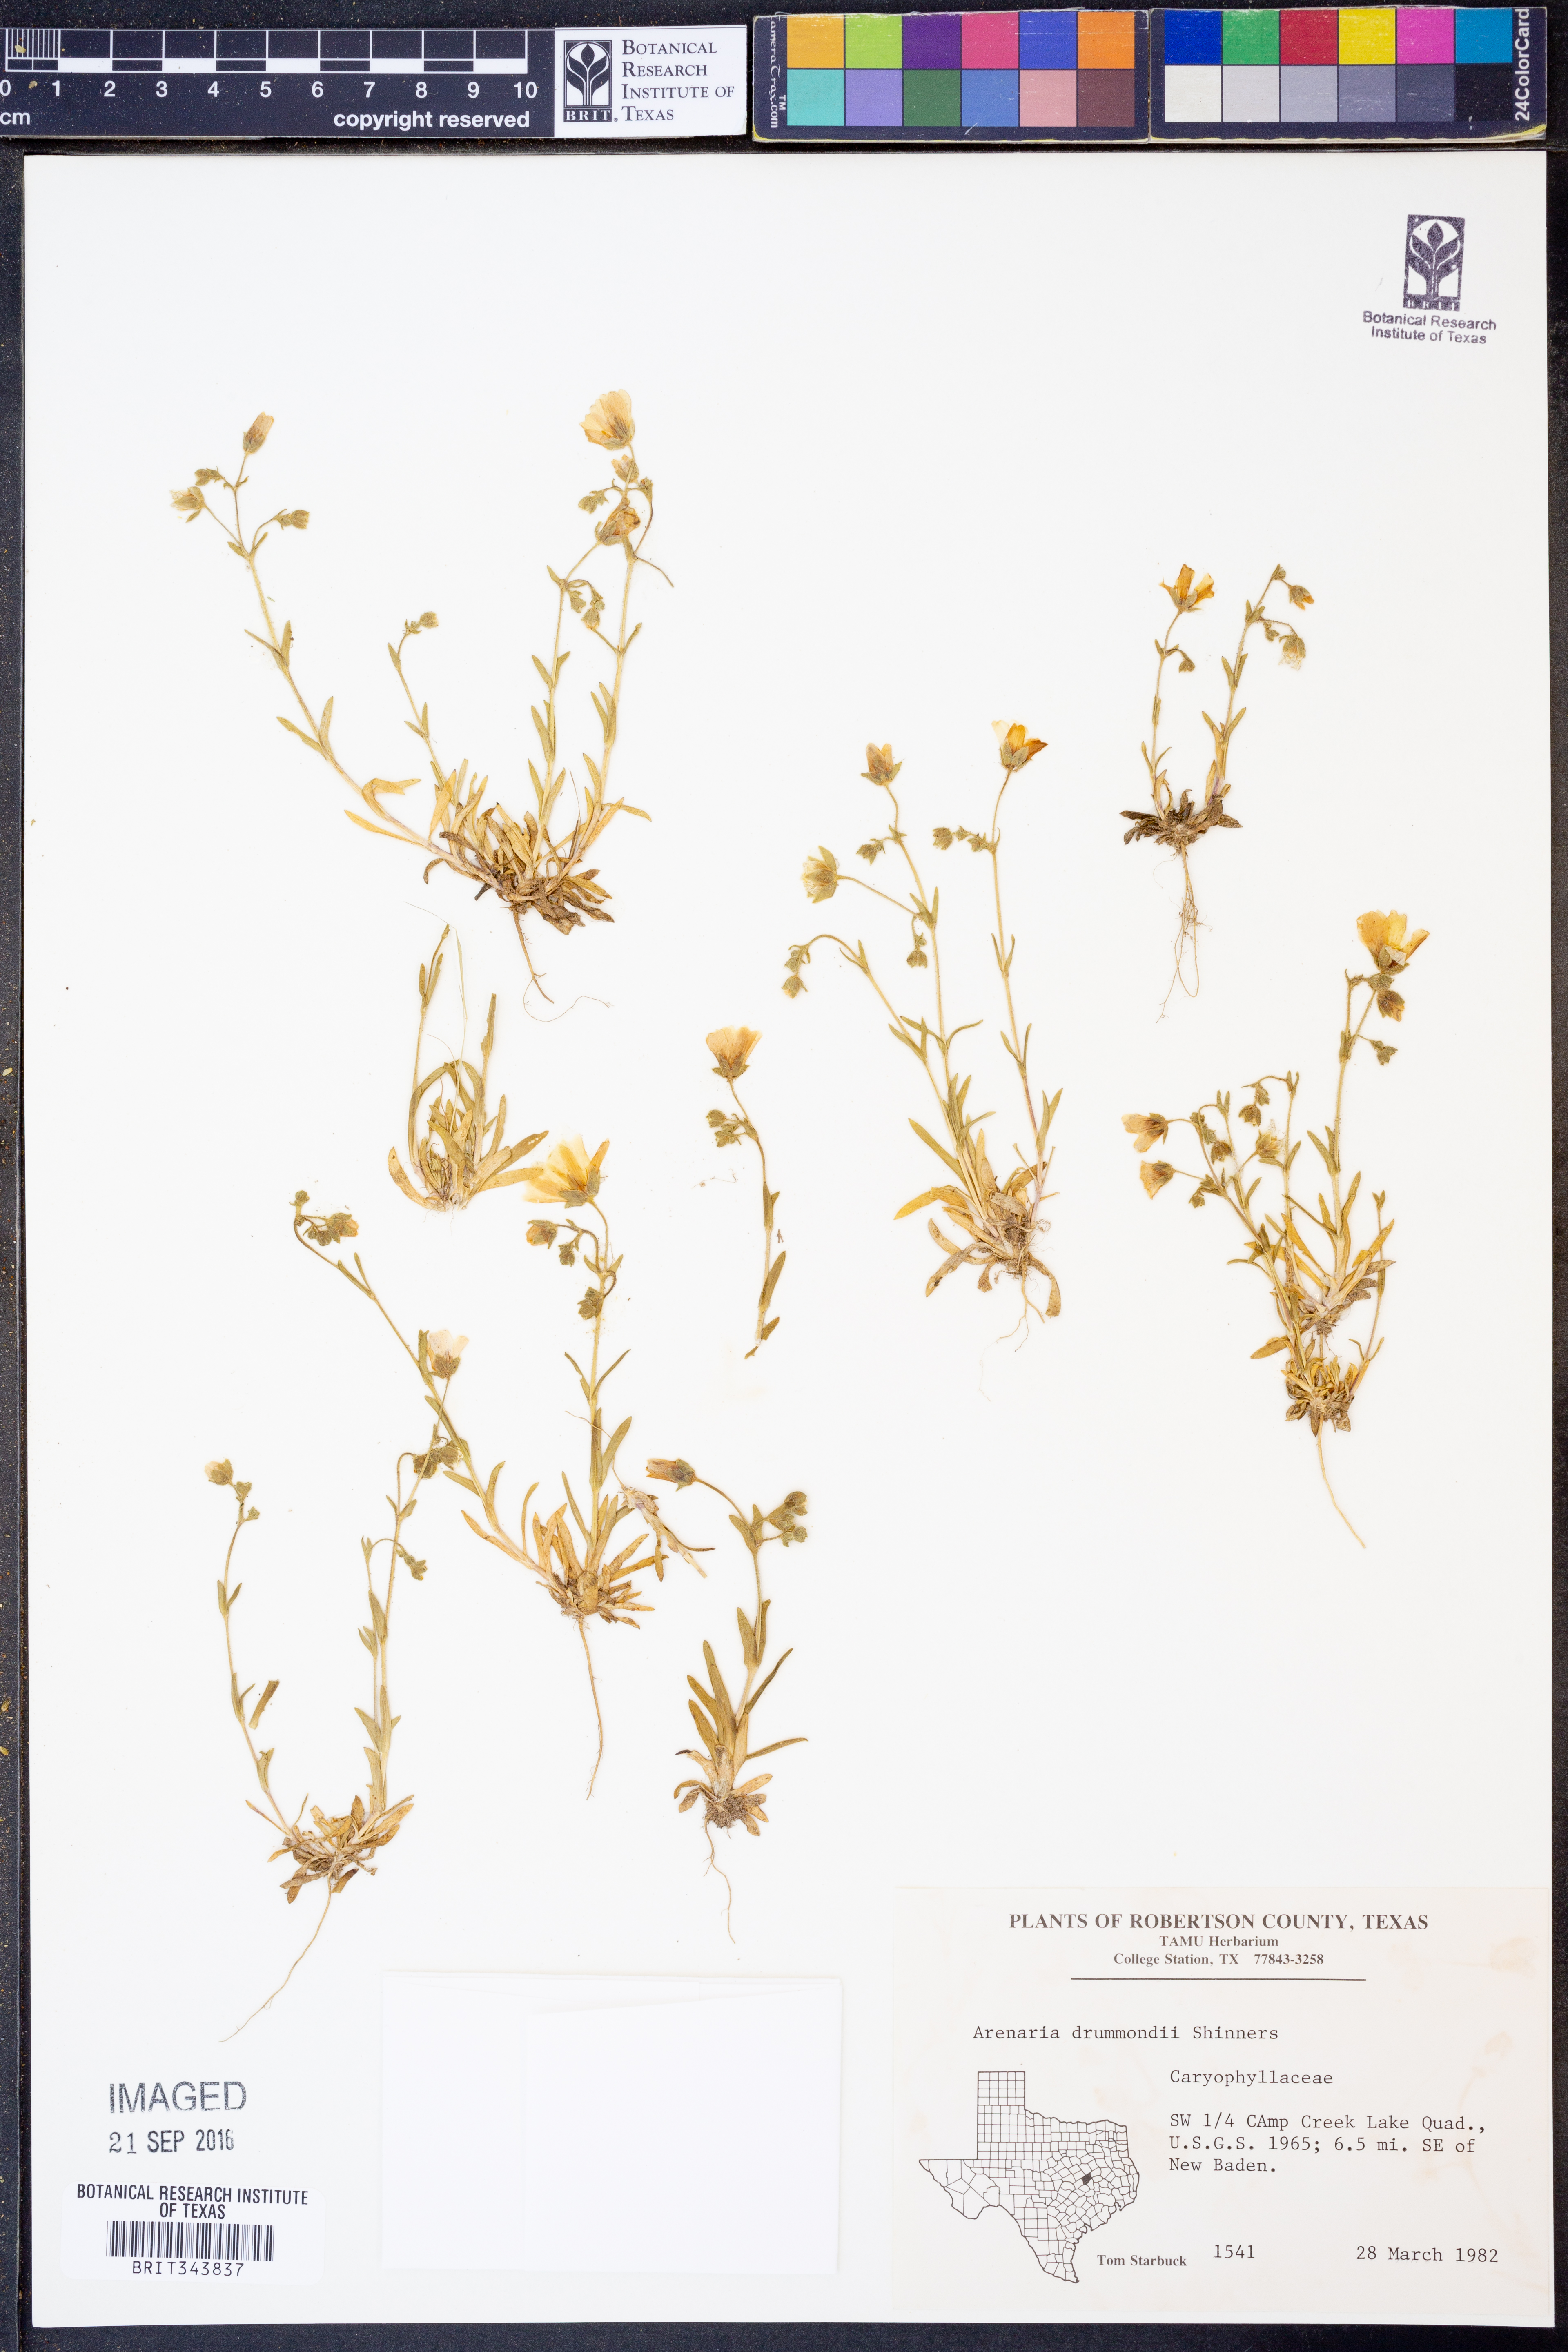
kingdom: Plantae
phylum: Tracheophyta
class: Magnoliopsida
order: Caryophyllales
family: Caryophyllaceae
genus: Geocarpon
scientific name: Geocarpon nuttallii
